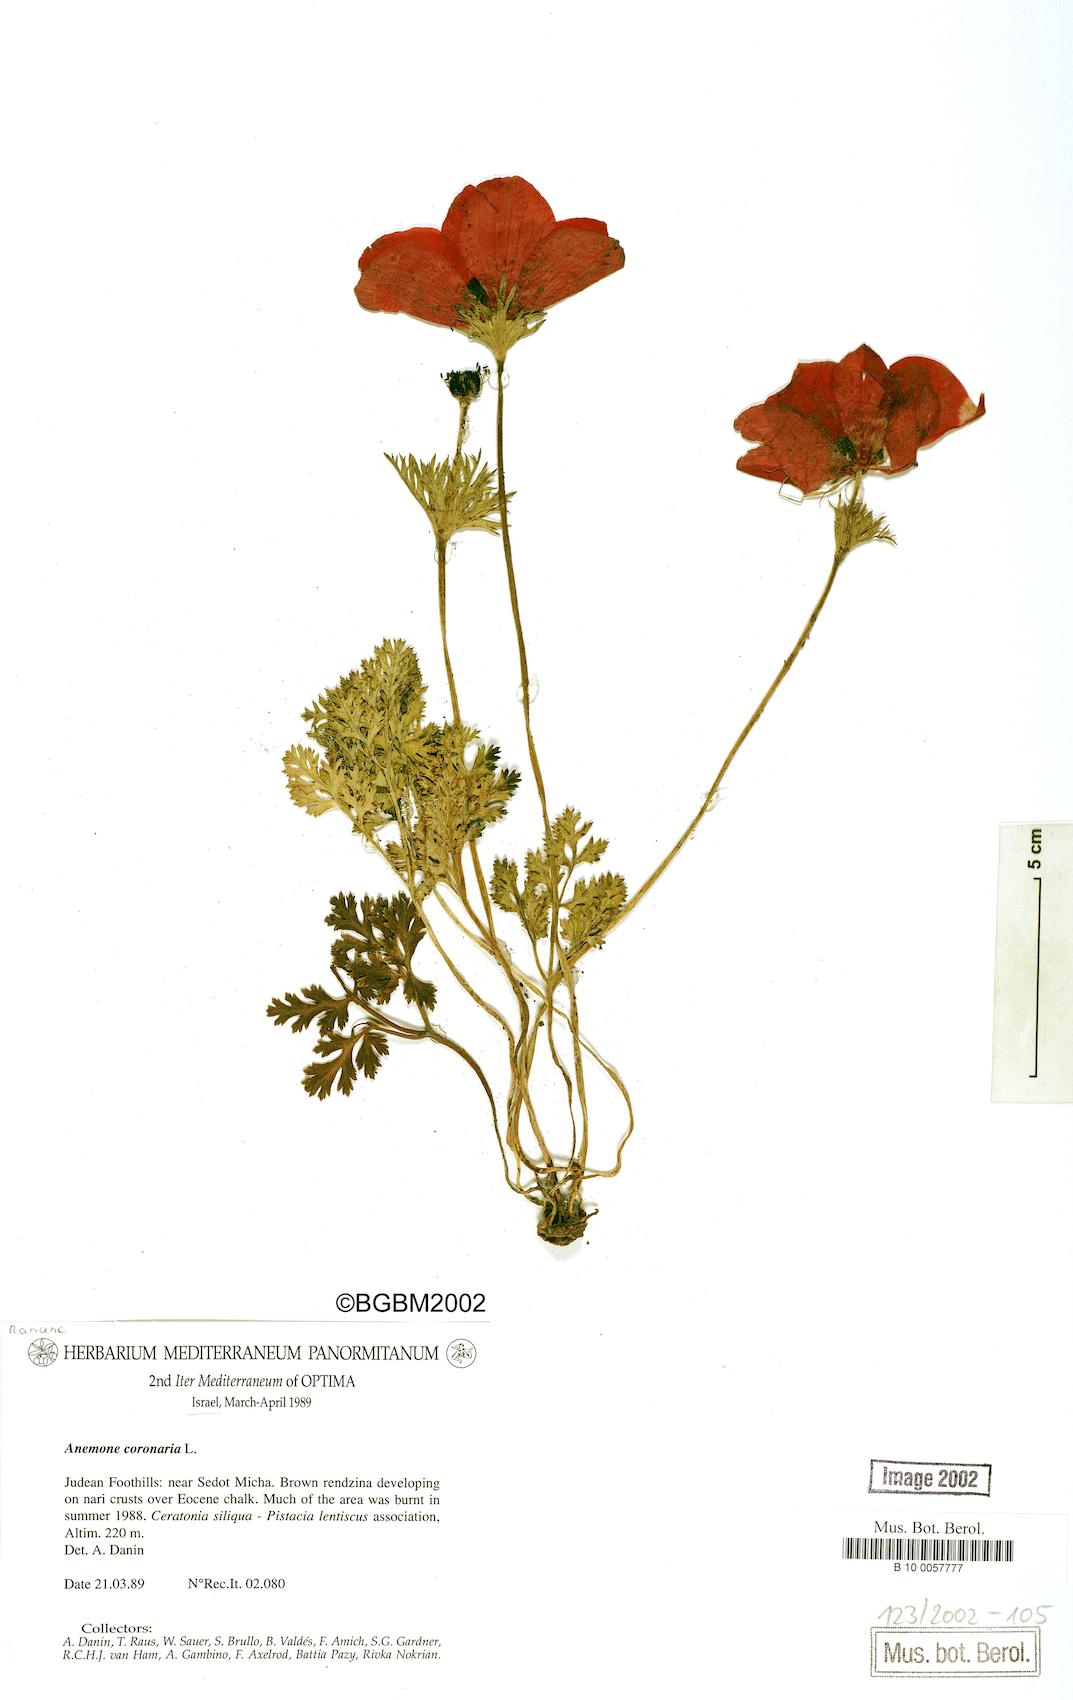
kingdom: Plantae
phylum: Tracheophyta
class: Magnoliopsida
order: Ranunculales
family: Ranunculaceae
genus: Anemone
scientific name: Anemone coronaria
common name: Poppy anemone
